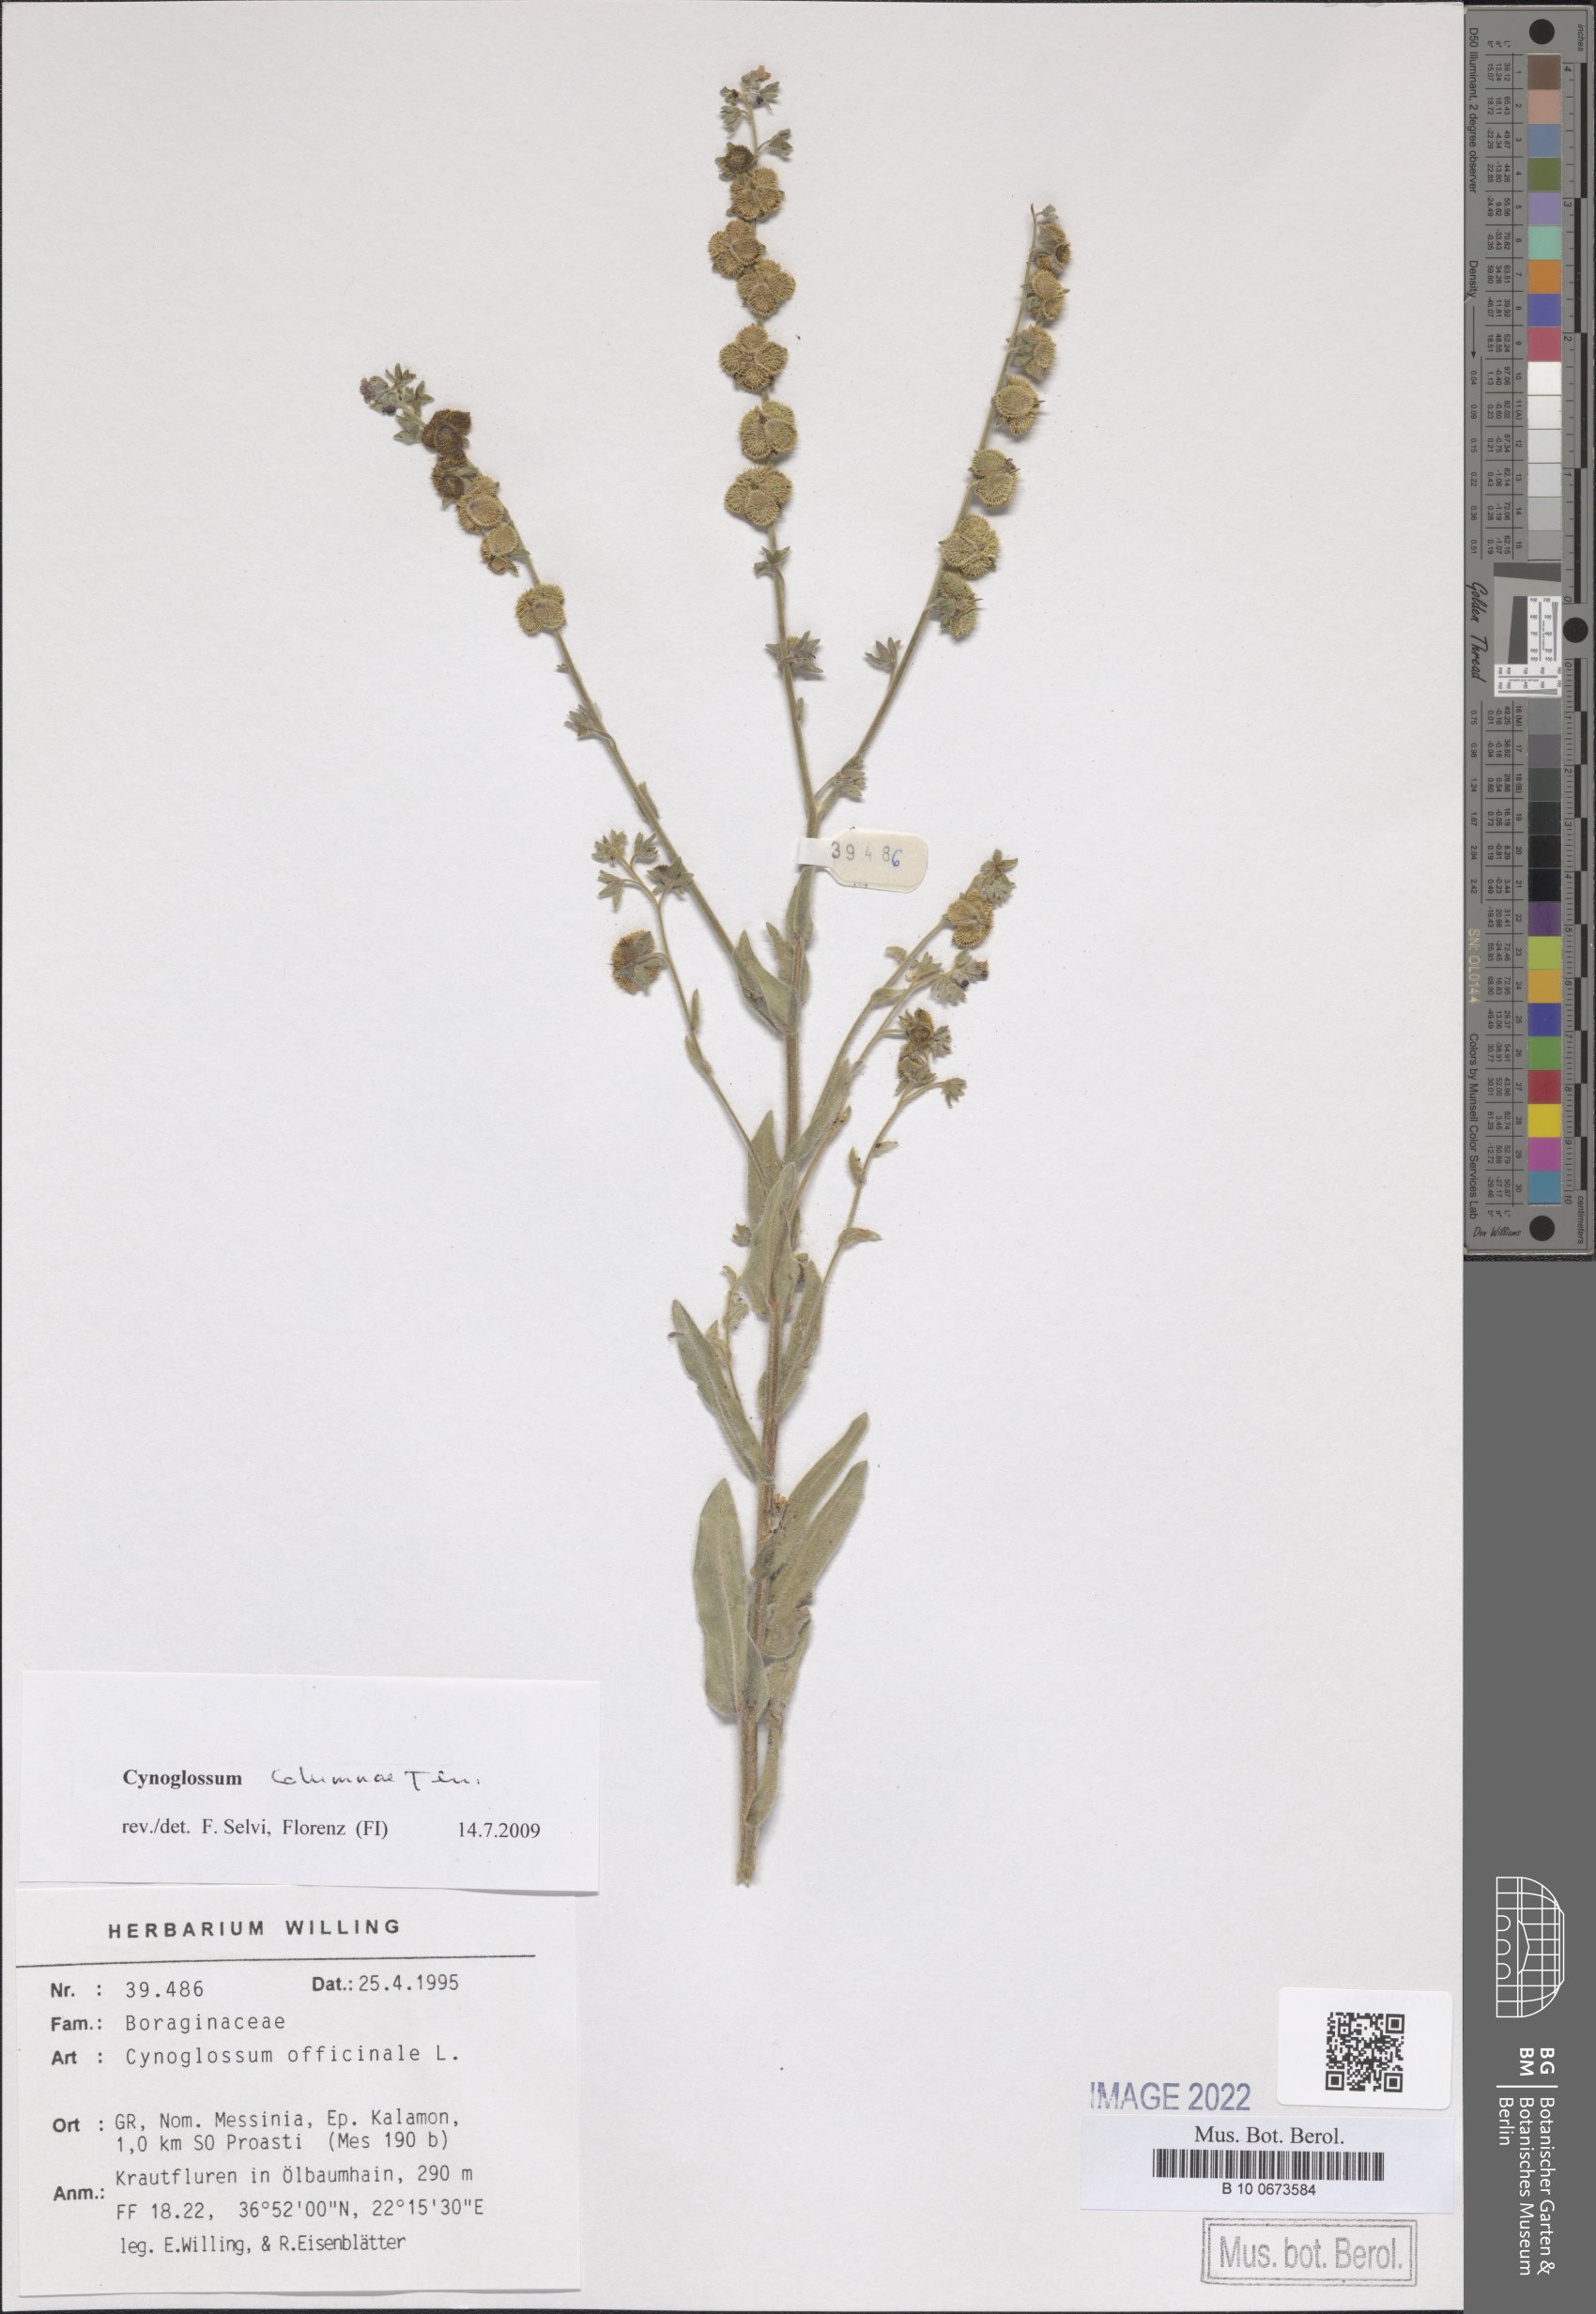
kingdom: Plantae
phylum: Tracheophyta
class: Magnoliopsida
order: Boraginales
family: Boraginaceae
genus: Rindera
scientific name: Rindera columnae
